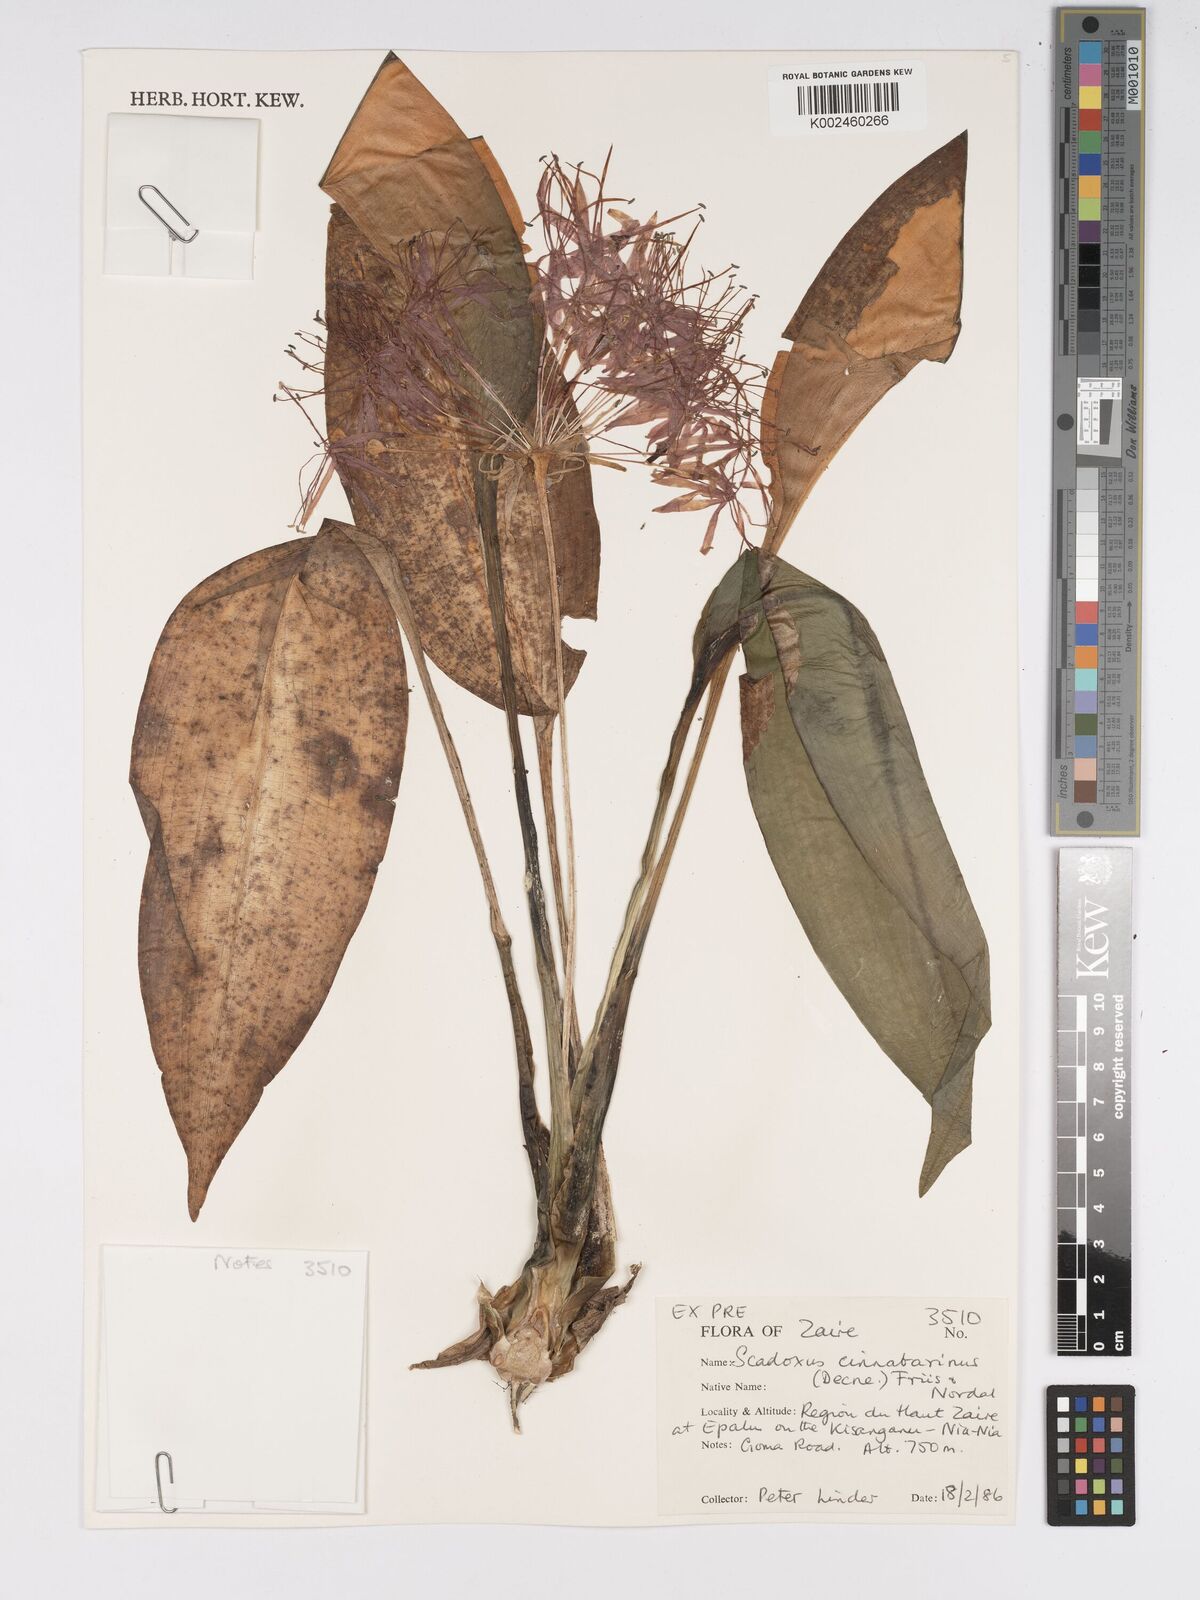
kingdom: Plantae
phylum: Tracheophyta
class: Liliopsida
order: Asparagales
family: Amaryllidaceae
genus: Scadoxus
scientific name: Scadoxus cinnabarinus
